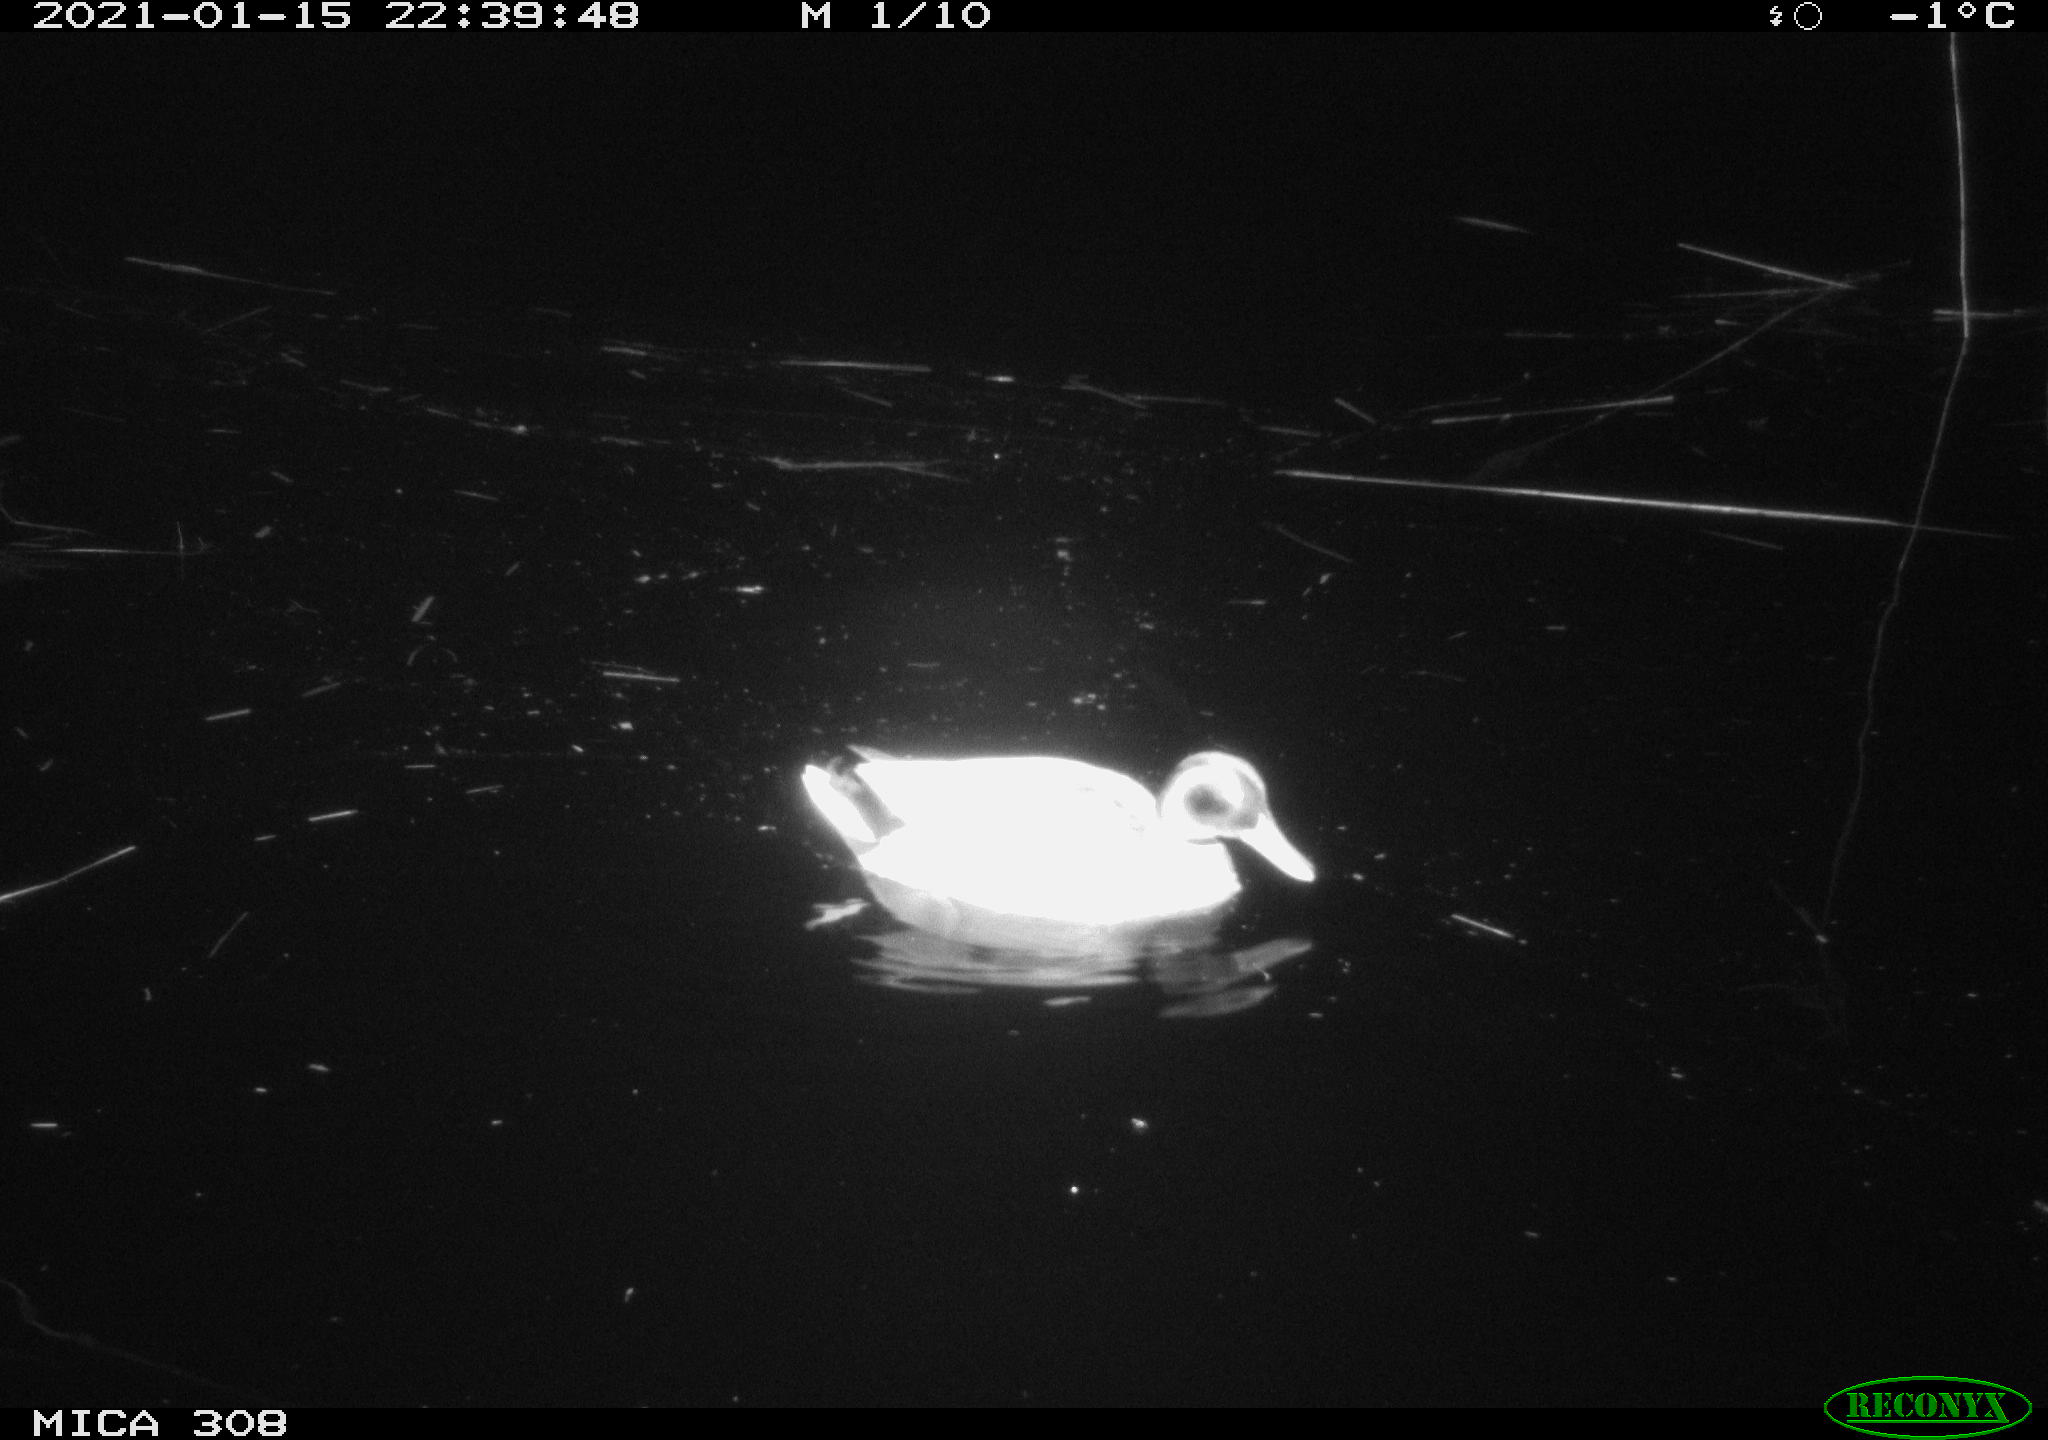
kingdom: Animalia
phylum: Chordata
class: Aves
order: Anseriformes
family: Anatidae
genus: Anas
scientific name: Anas platyrhynchos
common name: Mallard
